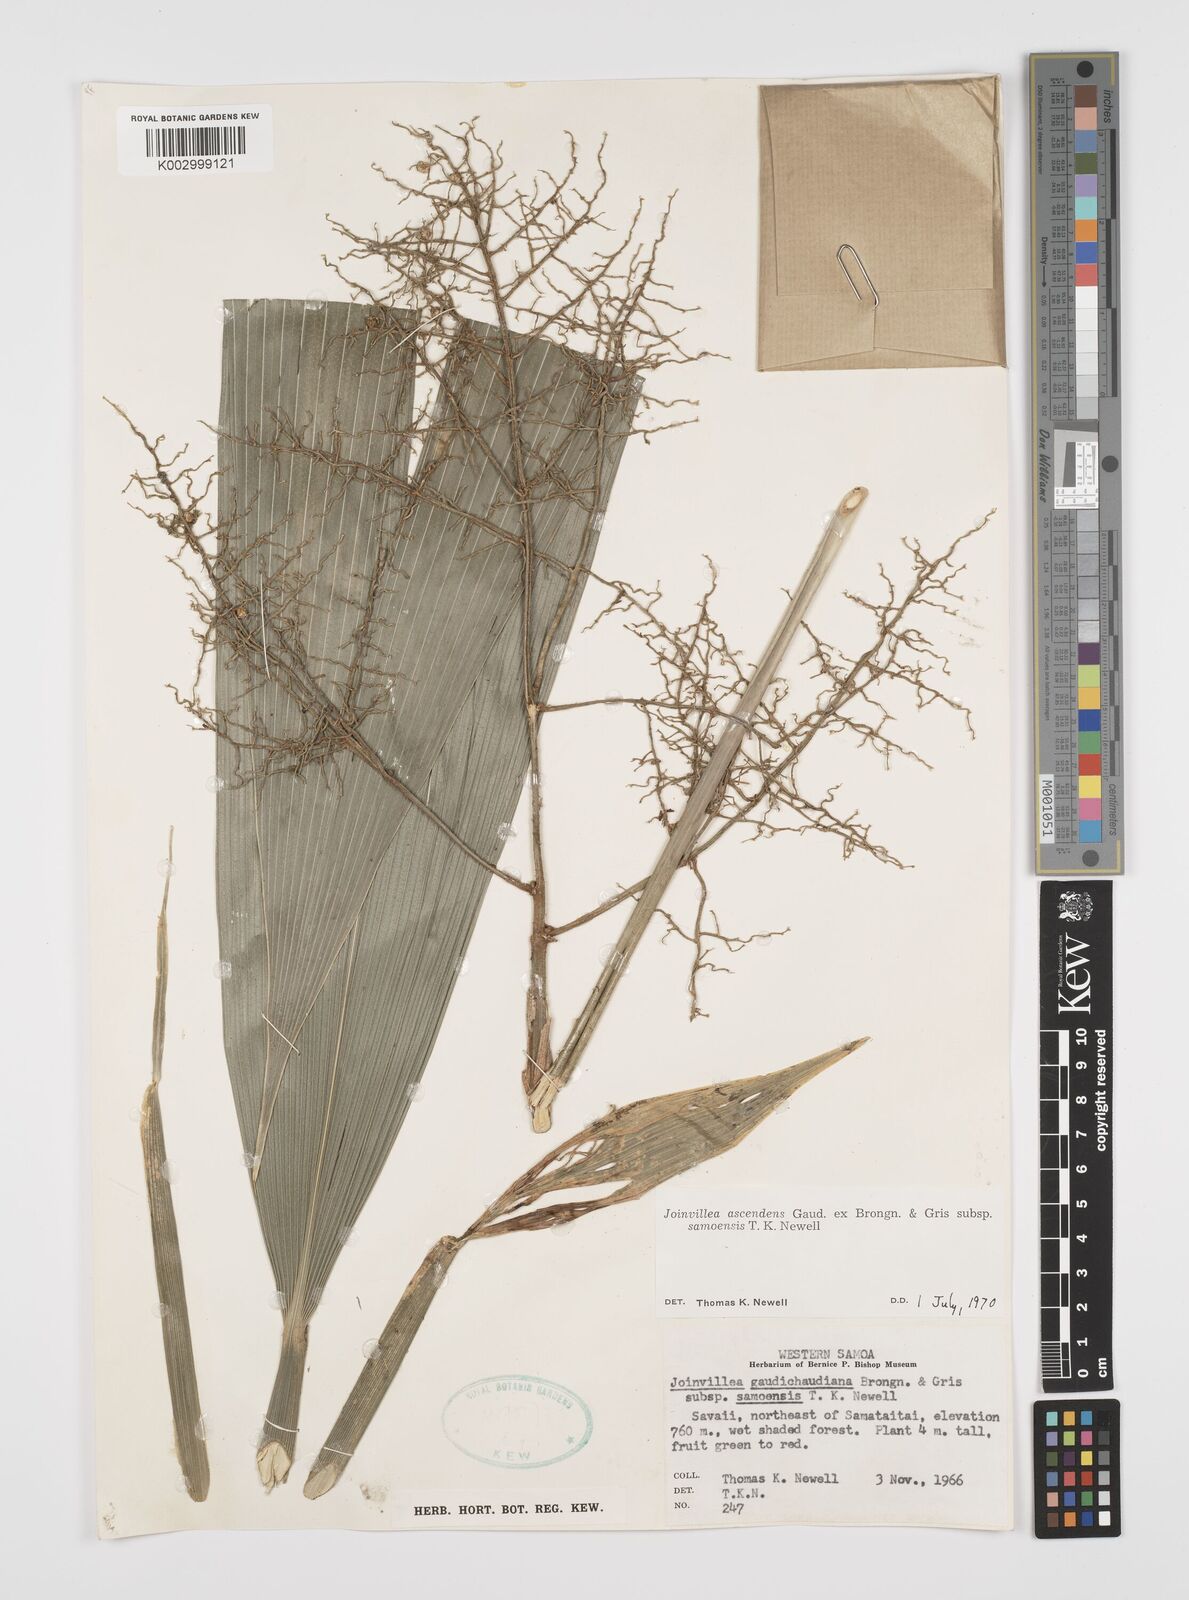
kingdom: Plantae
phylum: Tracheophyta
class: Liliopsida
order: Poales
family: Joinvilleaceae
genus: Joinvillea
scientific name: Joinvillea ascendens
